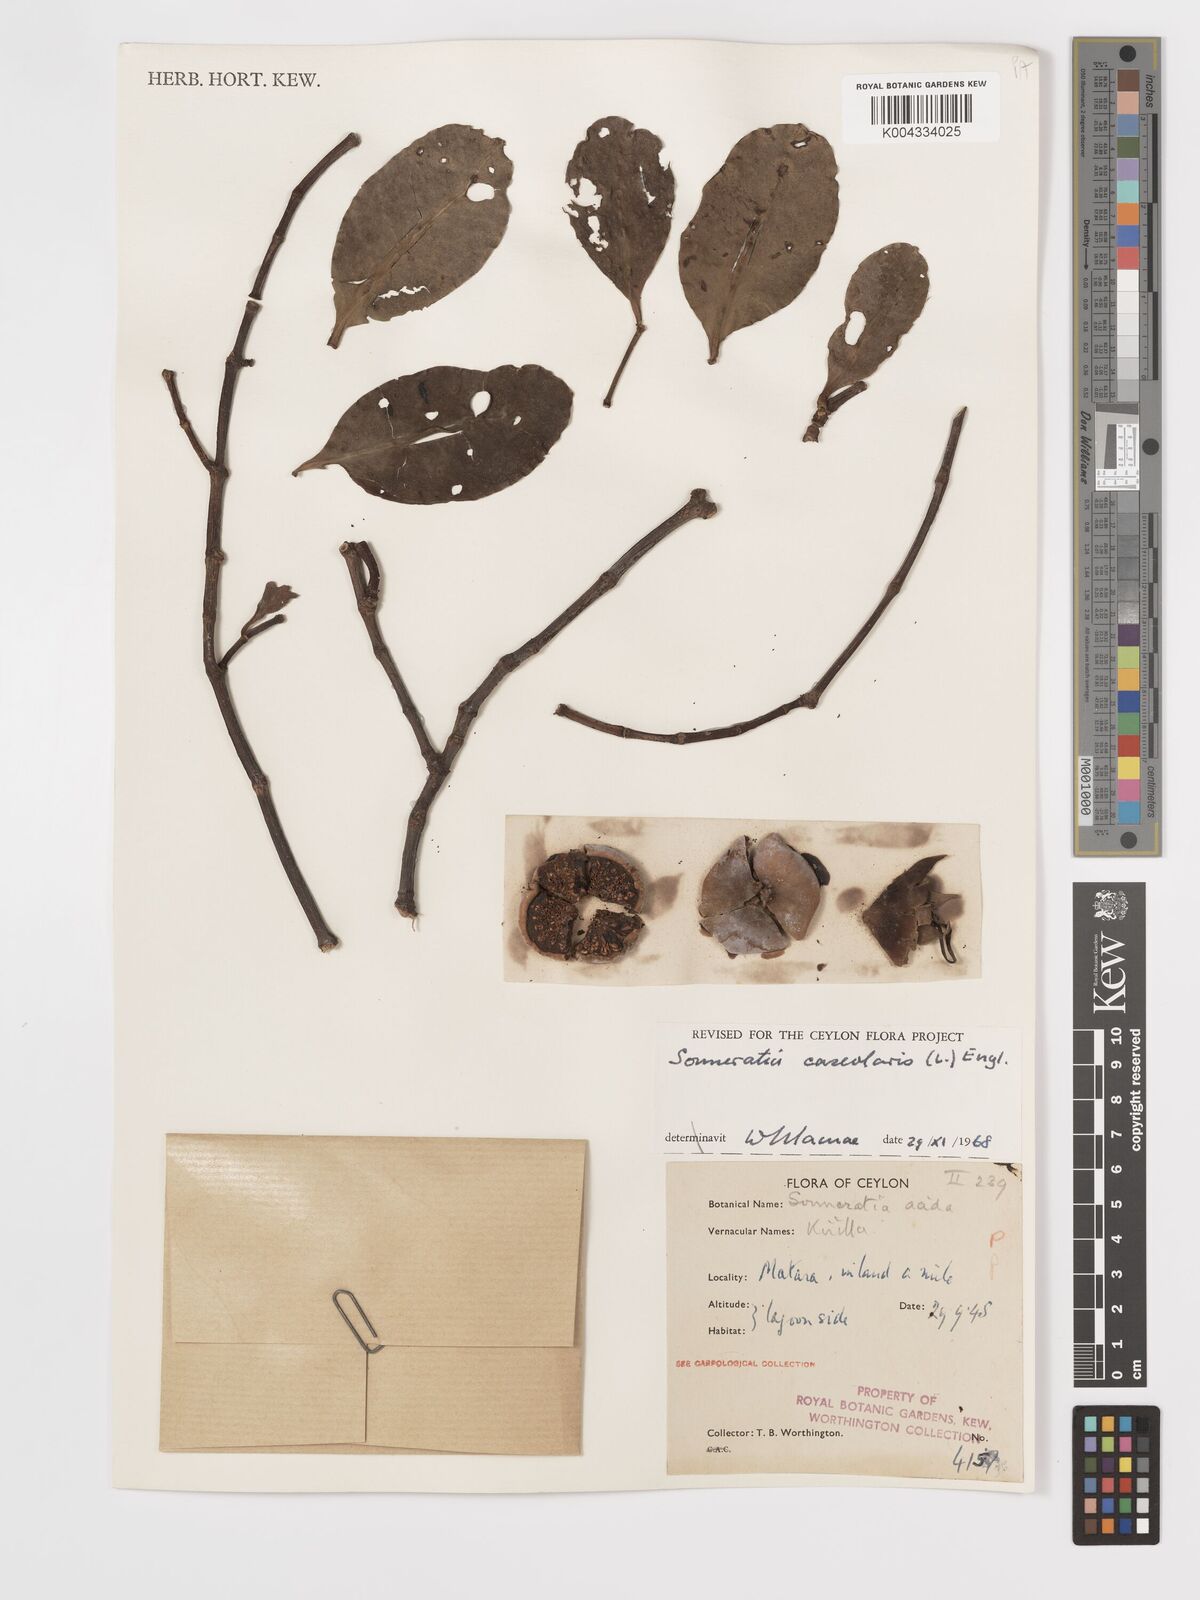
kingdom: Plantae
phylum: Tracheophyta
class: Magnoliopsida
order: Myrtales
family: Lythraceae
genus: Sonneratia
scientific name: Sonneratia caseolaris
